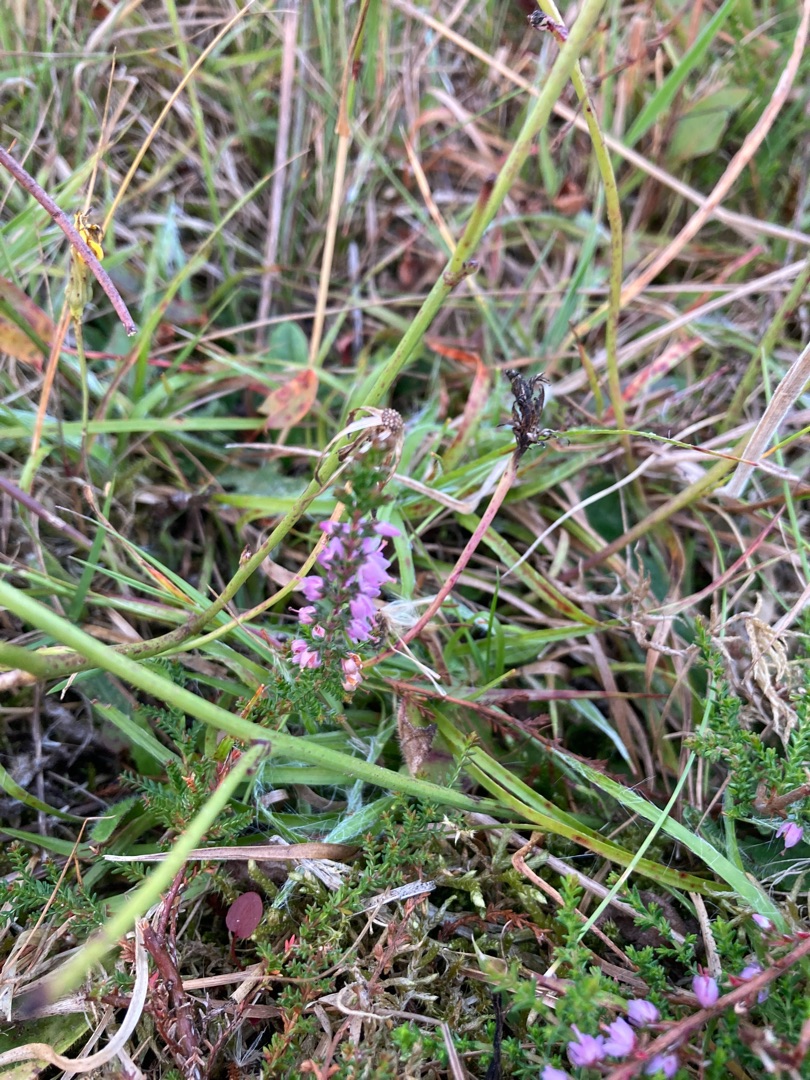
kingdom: Plantae
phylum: Tracheophyta
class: Magnoliopsida
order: Ericales
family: Ericaceae
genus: Calluna
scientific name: Calluna vulgaris
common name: Hedelyng
